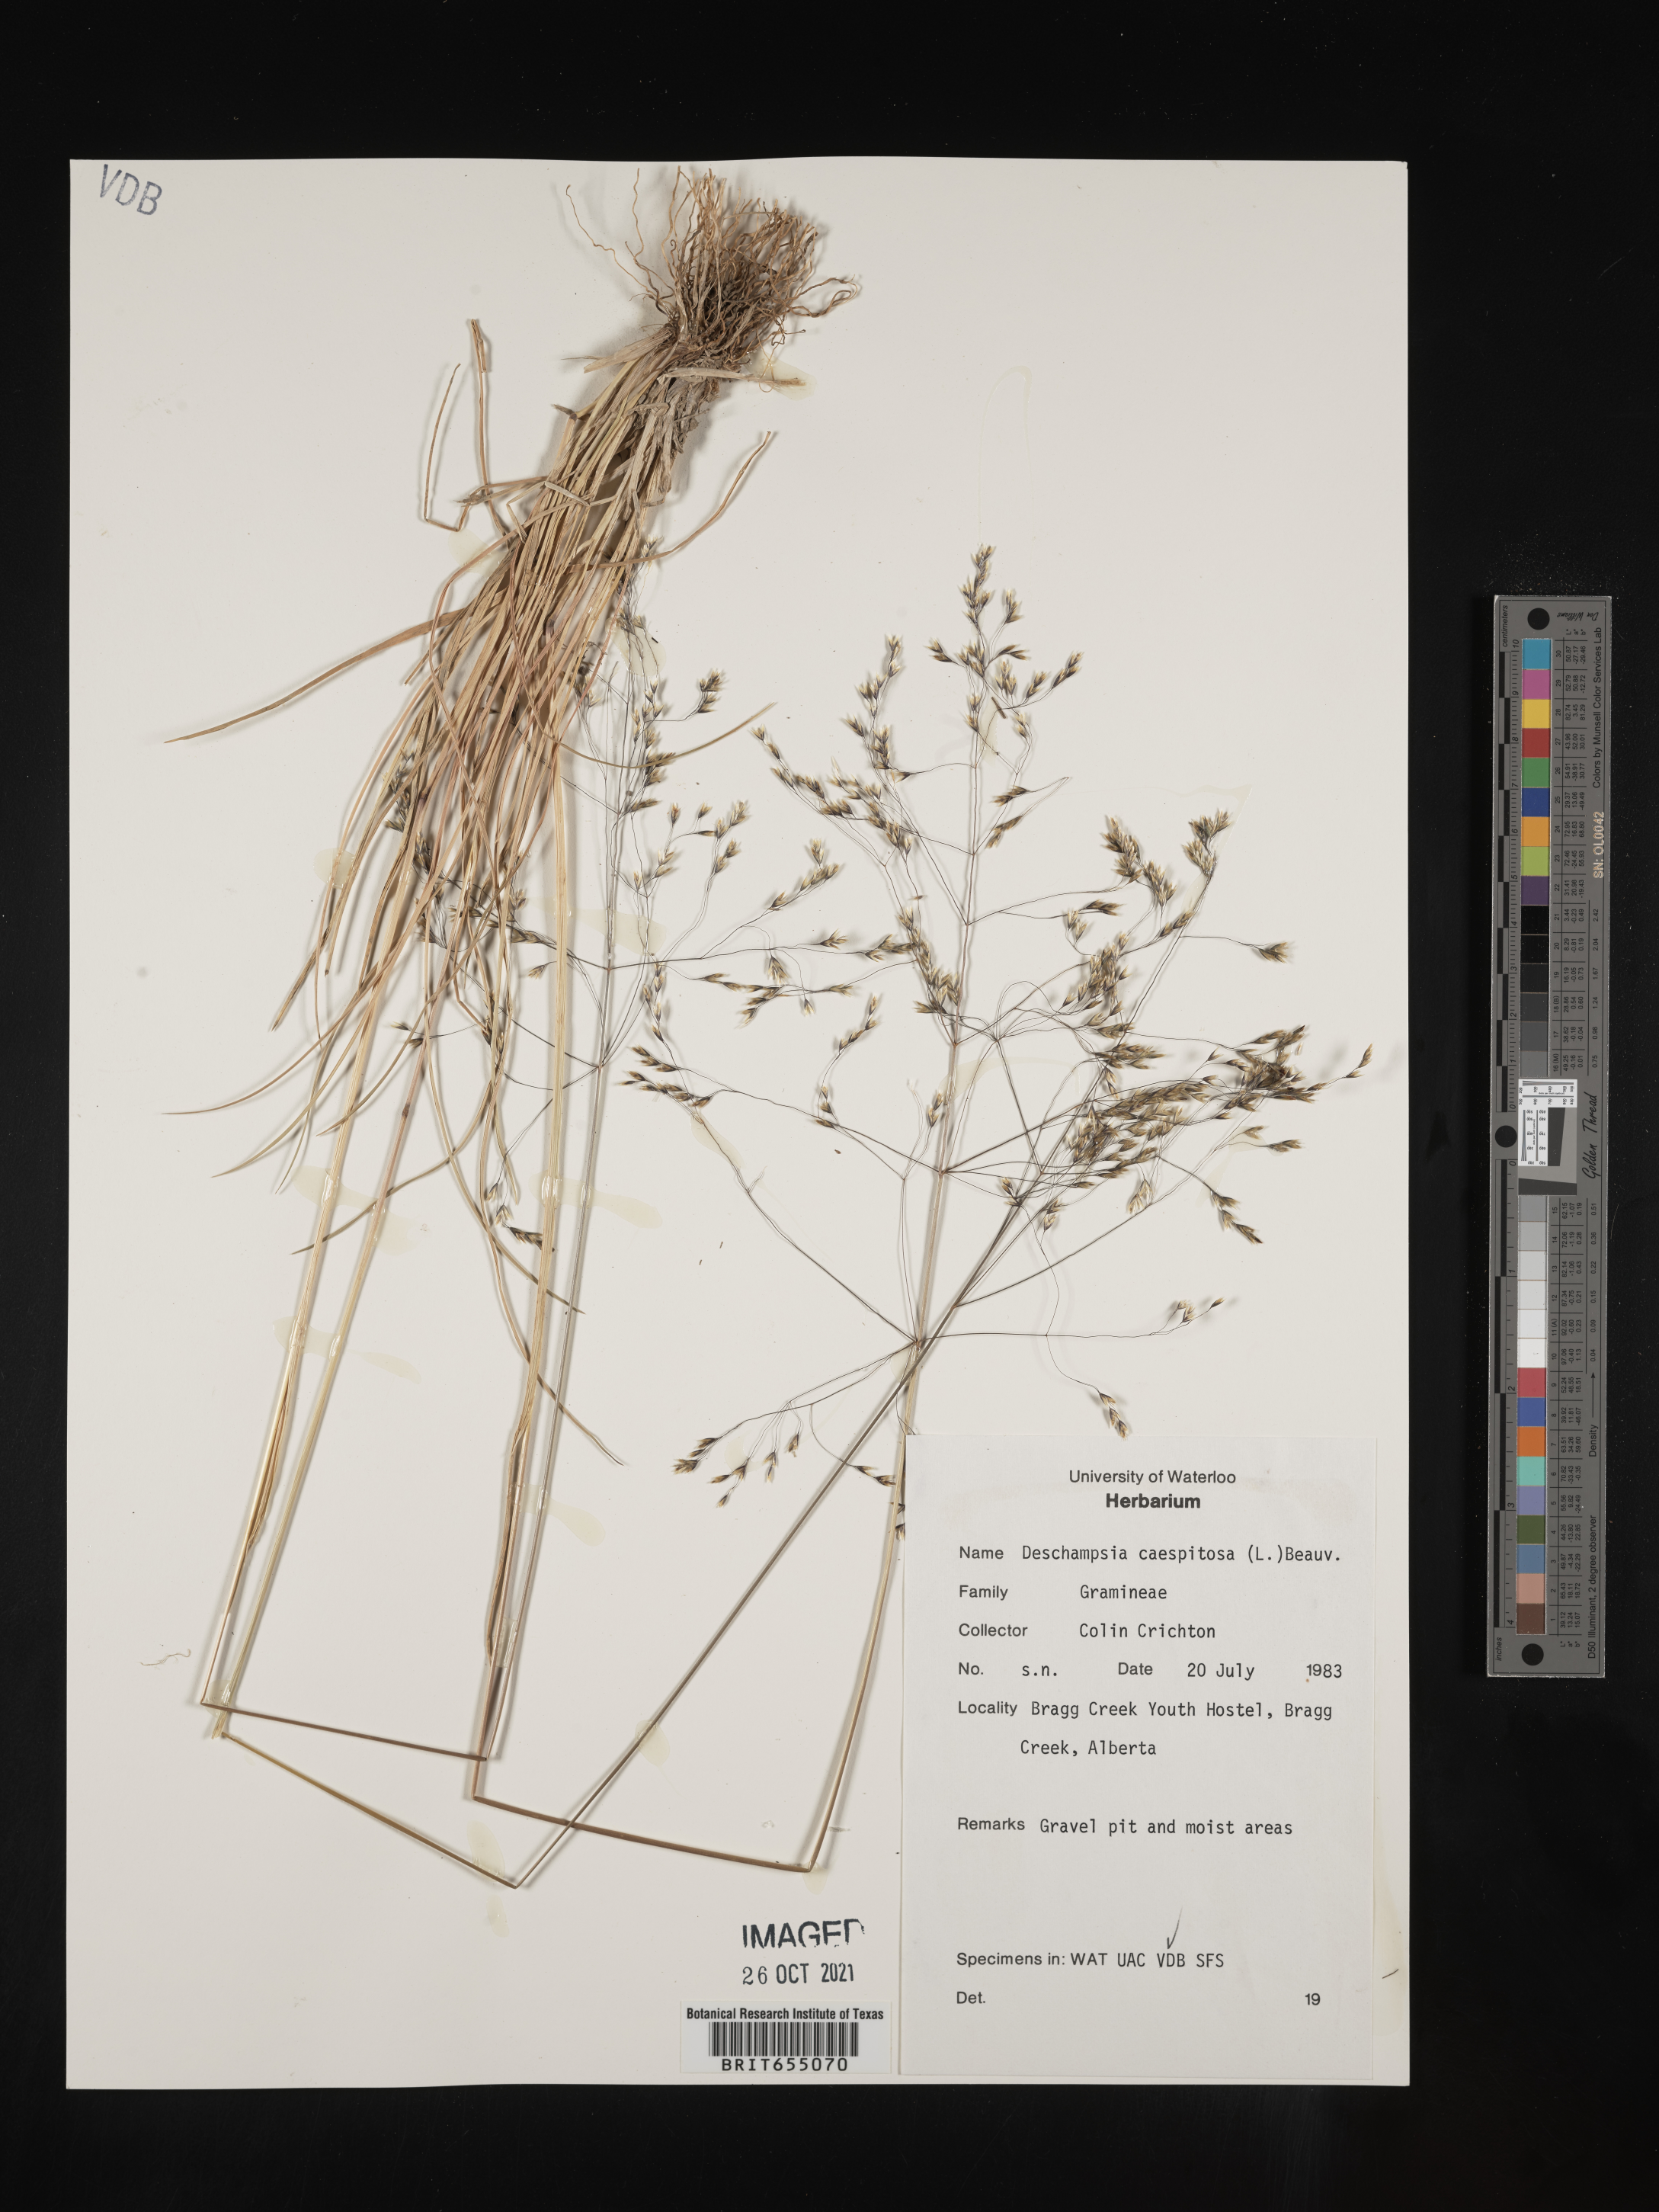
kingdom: Plantae
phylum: Tracheophyta
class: Liliopsida
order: Poales
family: Poaceae
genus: Deschampsia
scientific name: Deschampsia
